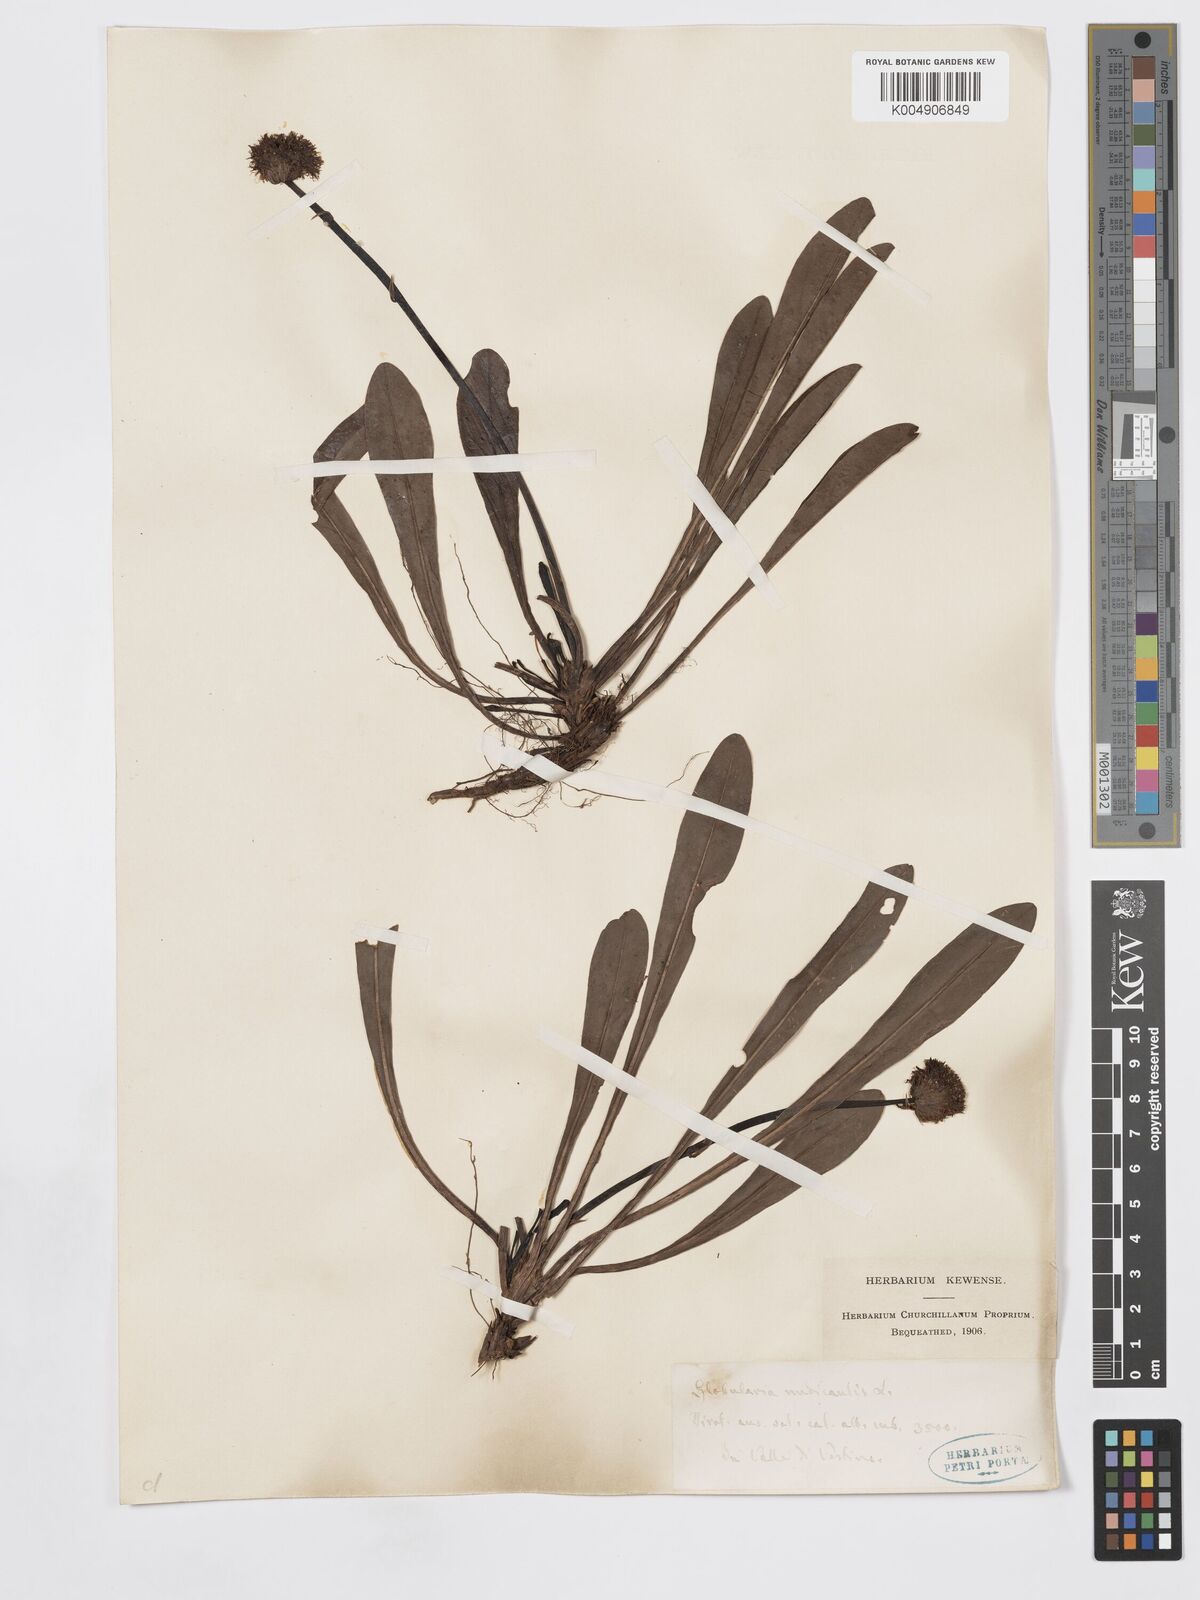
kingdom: Plantae
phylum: Tracheophyta
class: Magnoliopsida
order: Lamiales
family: Plantaginaceae
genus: Globularia
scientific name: Globularia nudicaulis
